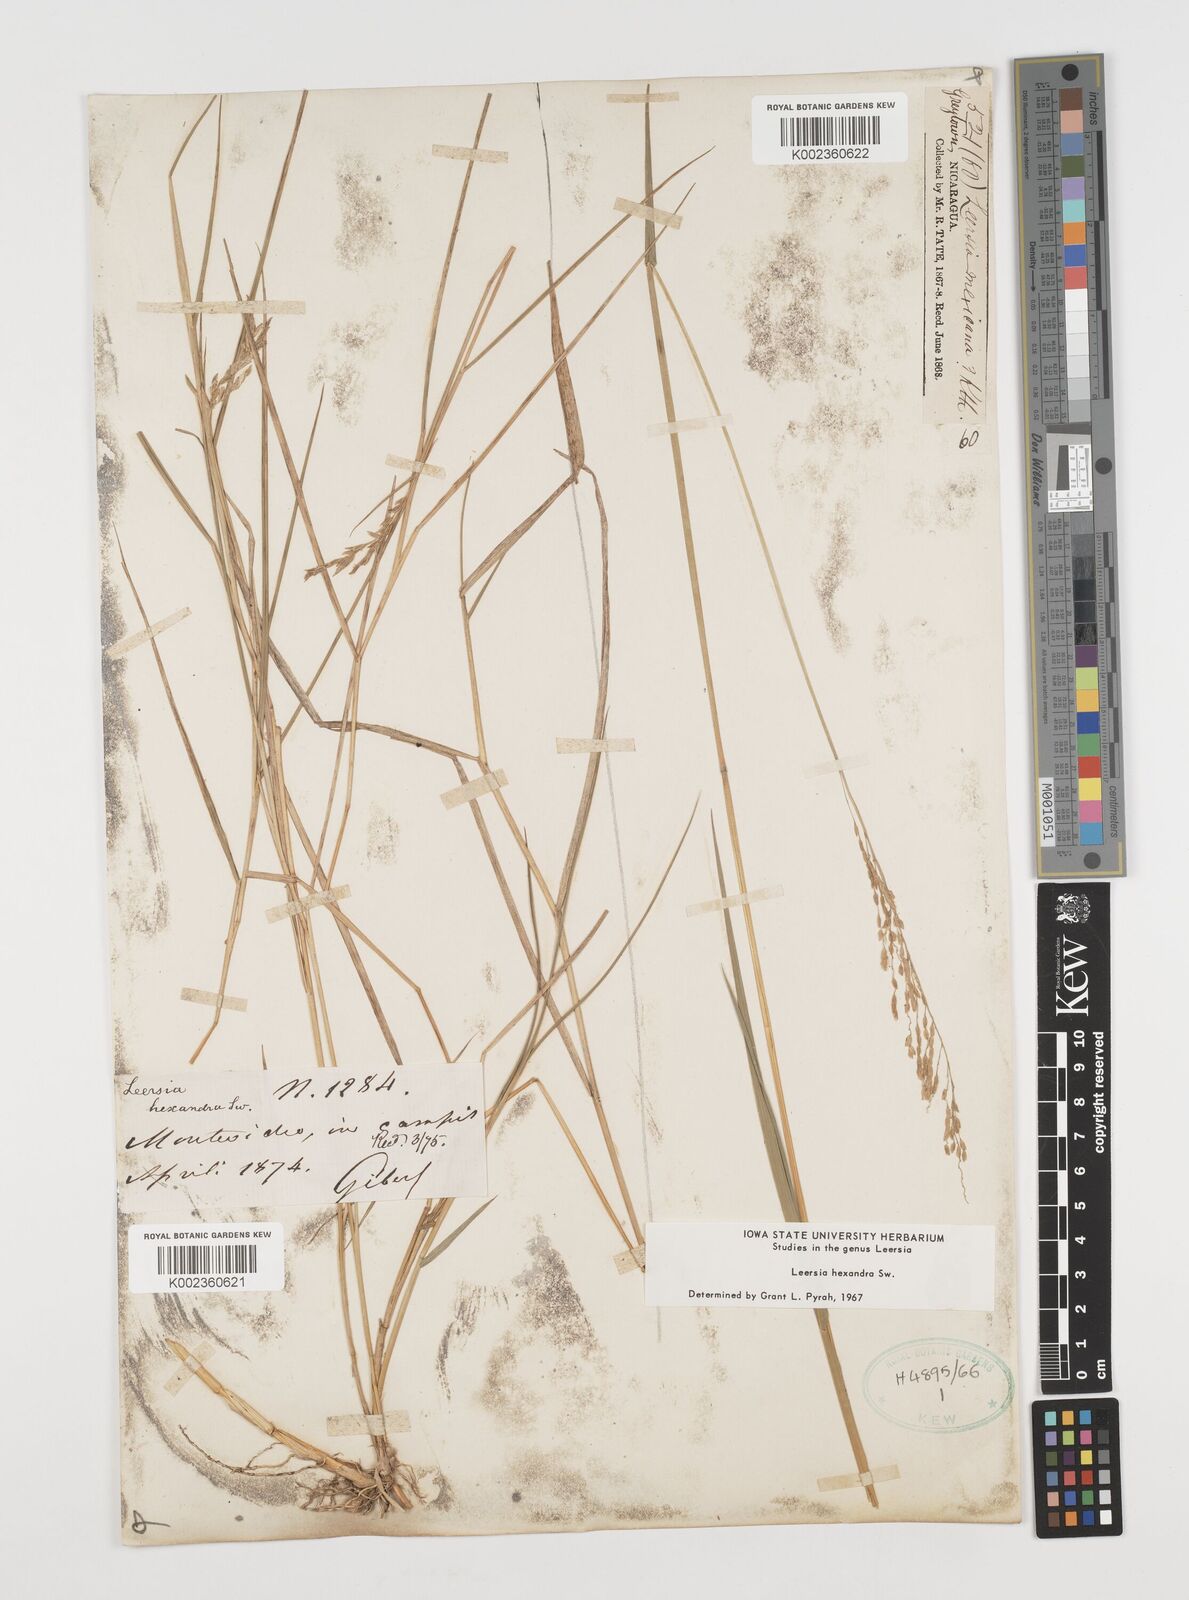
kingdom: Plantae
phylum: Tracheophyta
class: Liliopsida
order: Poales
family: Poaceae
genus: Leersia
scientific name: Leersia hexandra
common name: Southern cut grass
